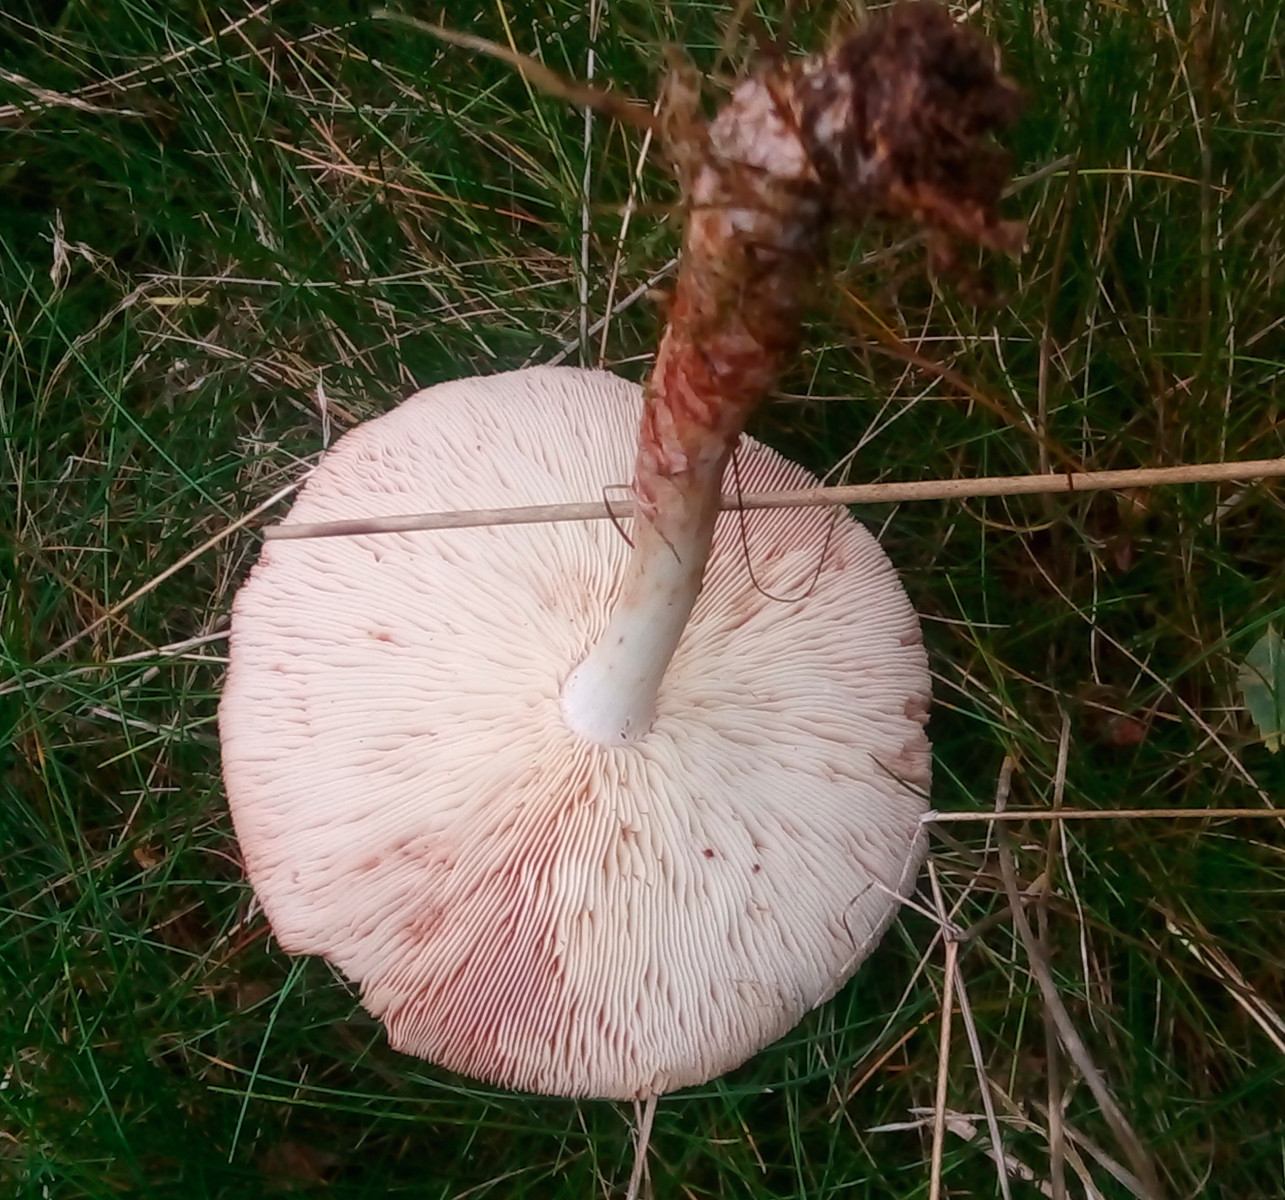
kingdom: Fungi
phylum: Basidiomycota
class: Agaricomycetes
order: Agaricales
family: Omphalotaceae
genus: Rhodocollybia
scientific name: Rhodocollybia maculata
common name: plettet fladhat
